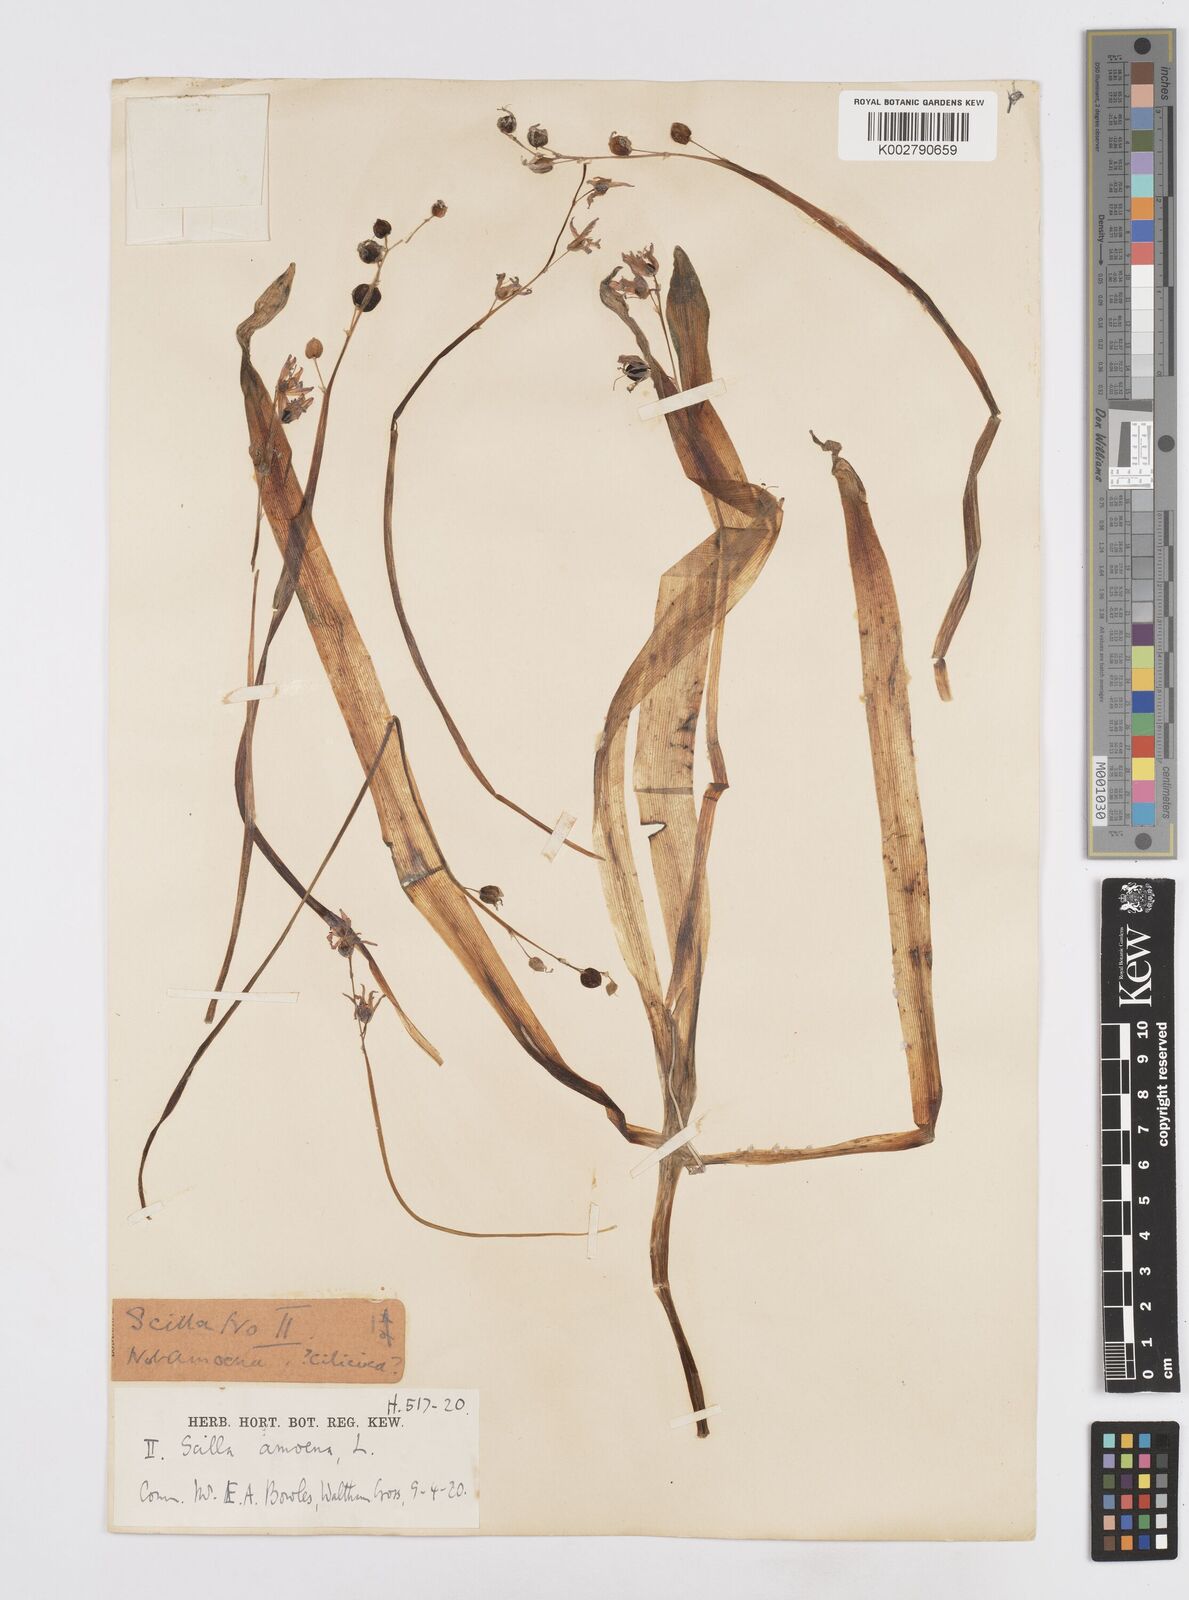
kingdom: Plantae
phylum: Tracheophyta
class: Liliopsida
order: Asparagales
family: Asparagaceae
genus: Scilla
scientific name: Scilla cilicica
